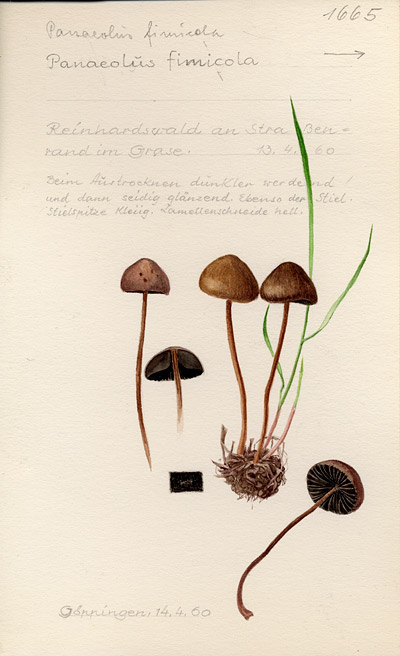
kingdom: Fungi
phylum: Basidiomycota
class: Agaricomycetes
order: Agaricales
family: Bolbitiaceae
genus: Panaeolus
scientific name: Panaeolus fimicola
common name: Turf mottlegill
